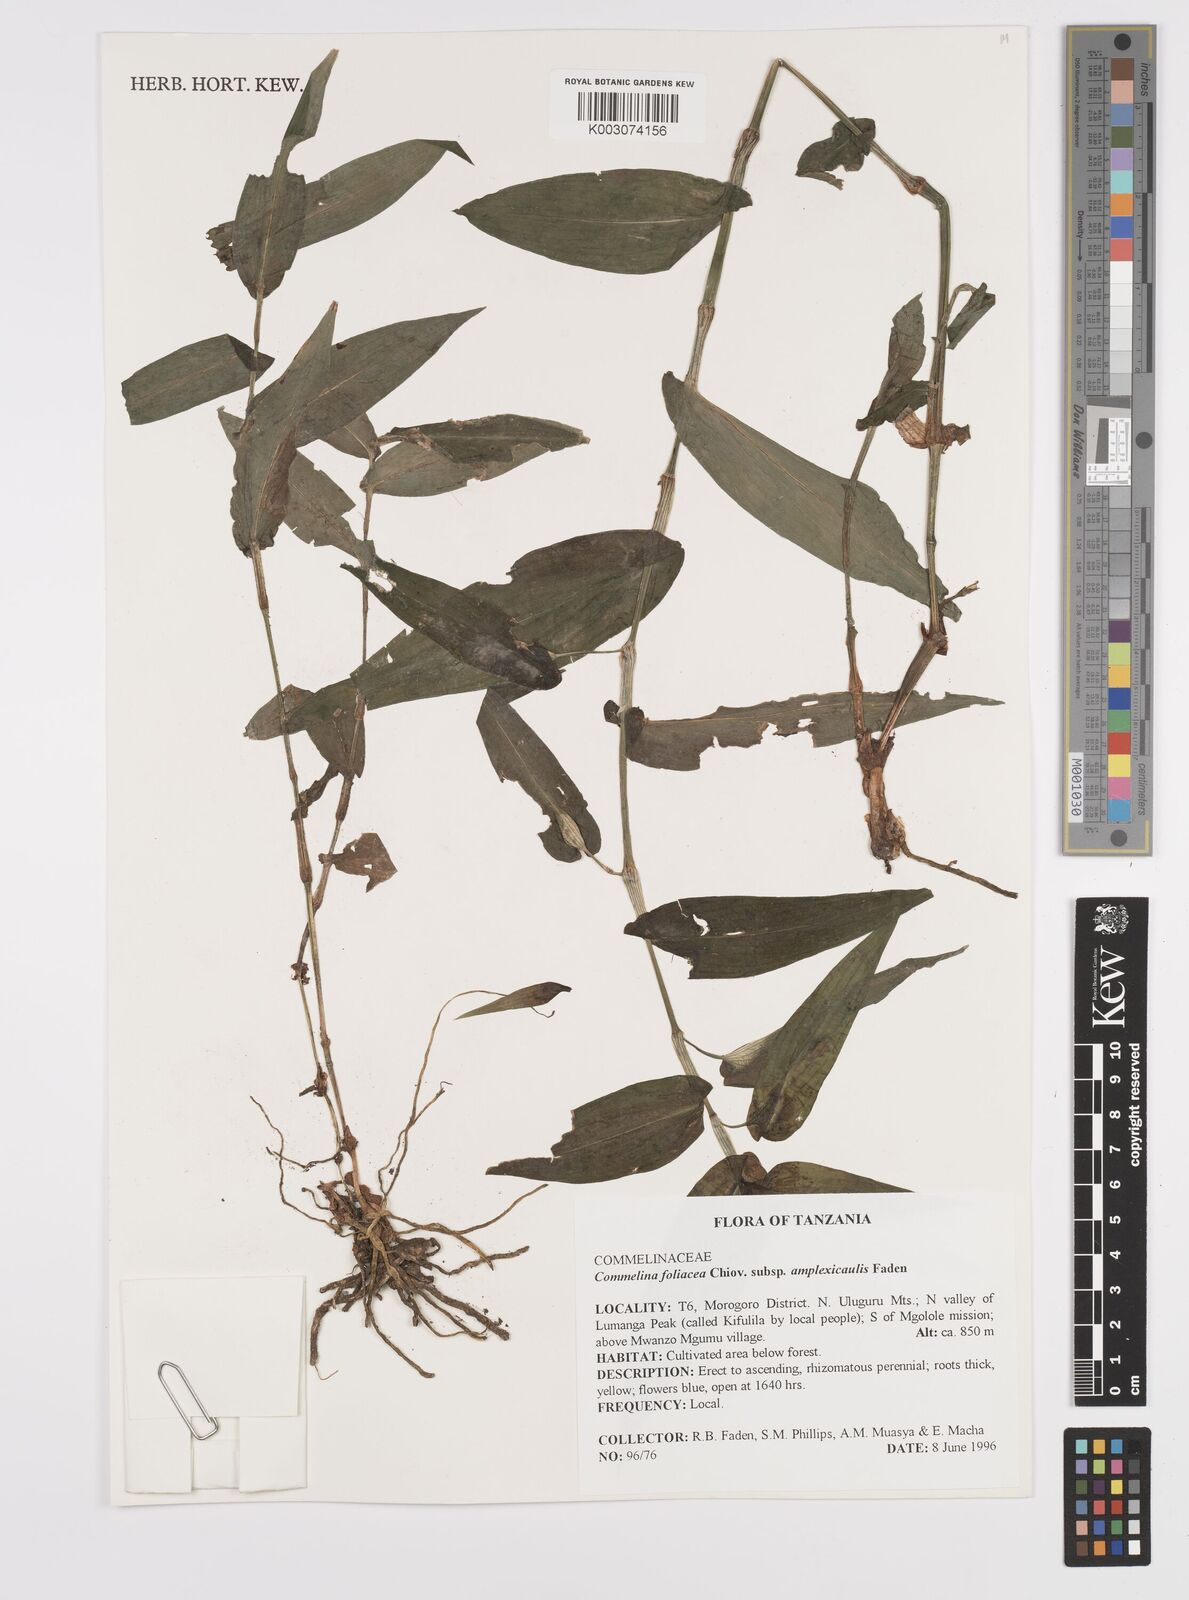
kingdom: Plantae
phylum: Tracheophyta
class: Liliopsida
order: Commelinales
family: Commelinaceae
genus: Commelina
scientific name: Commelina foliacea
